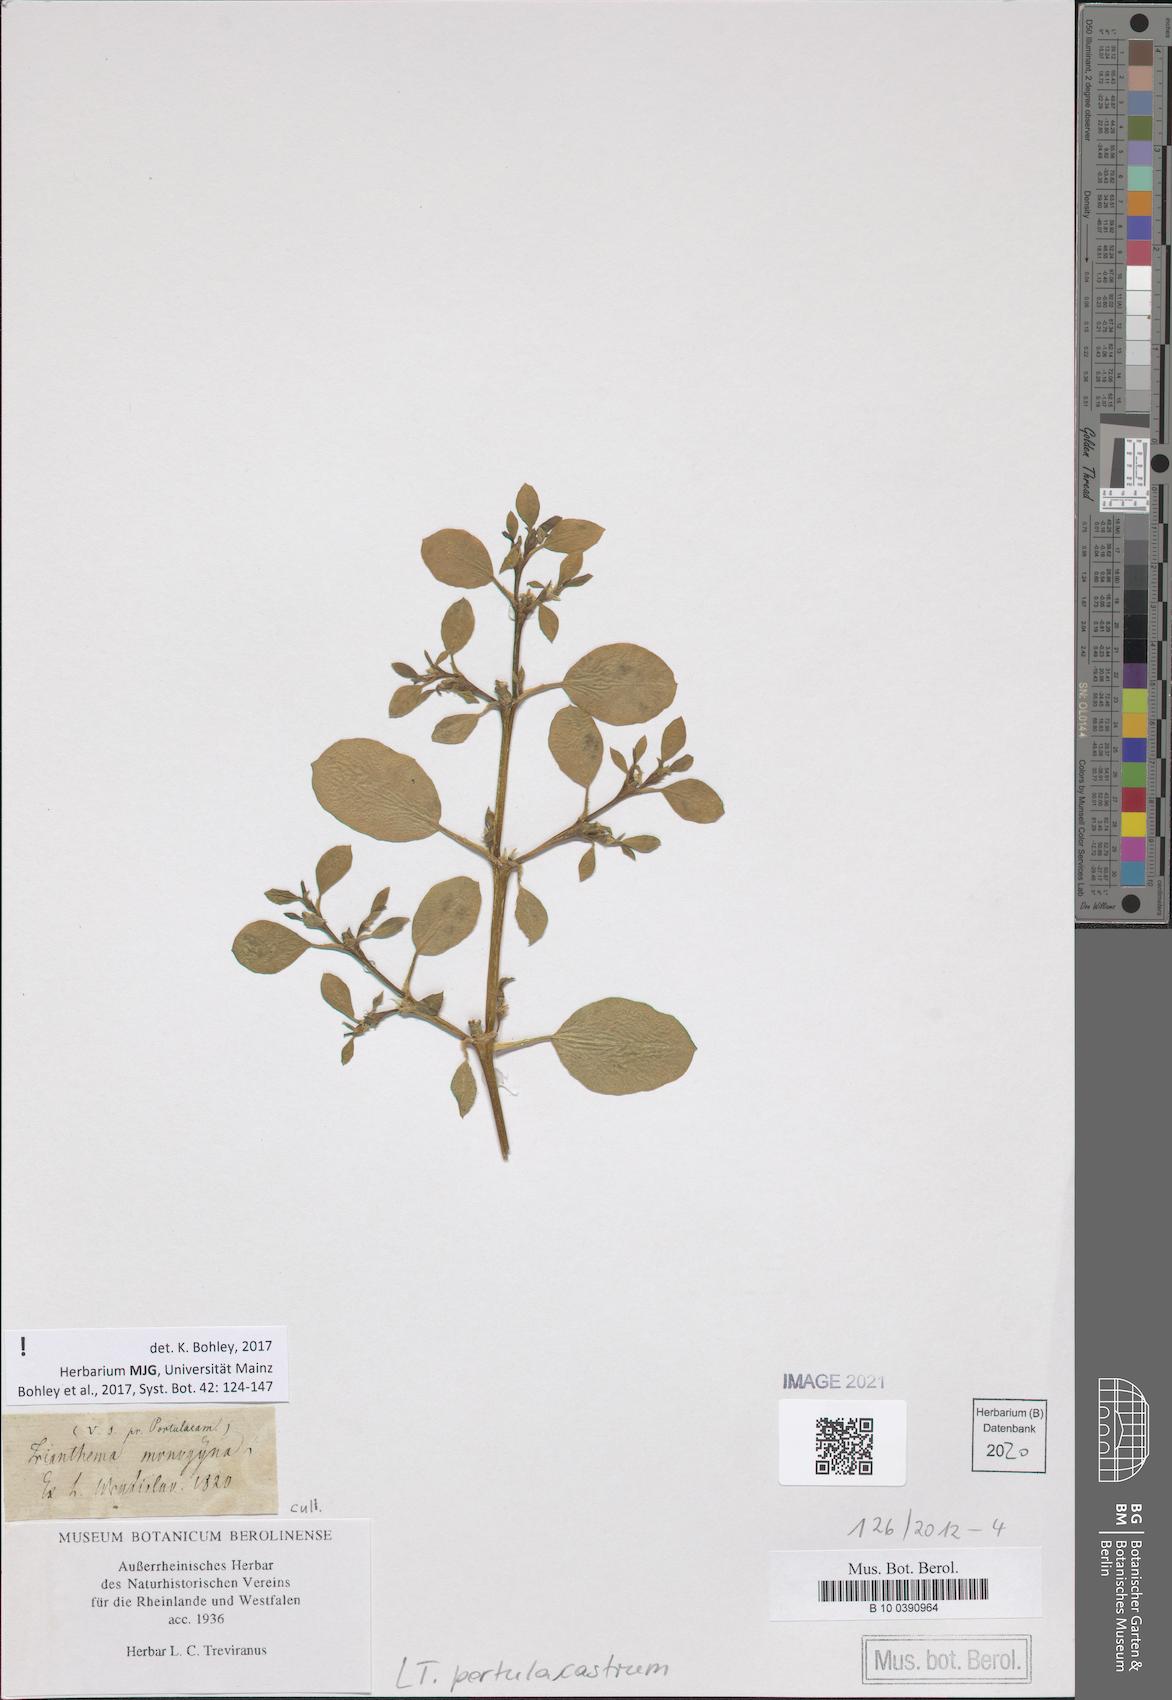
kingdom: Plantae
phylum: Tracheophyta
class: Magnoliopsida
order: Caryophyllales
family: Aizoaceae
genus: Trianthema
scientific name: Trianthema portulacastrum
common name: Desert horsepurslane
